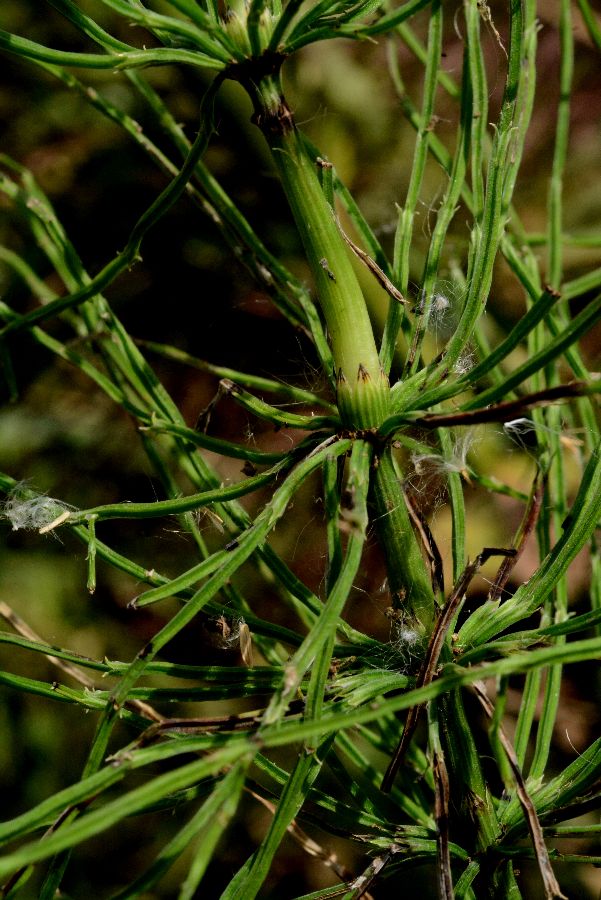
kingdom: Plantae
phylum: Tracheophyta
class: Polypodiopsida
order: Equisetales
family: Equisetaceae
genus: Equisetum
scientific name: Equisetum arvense
